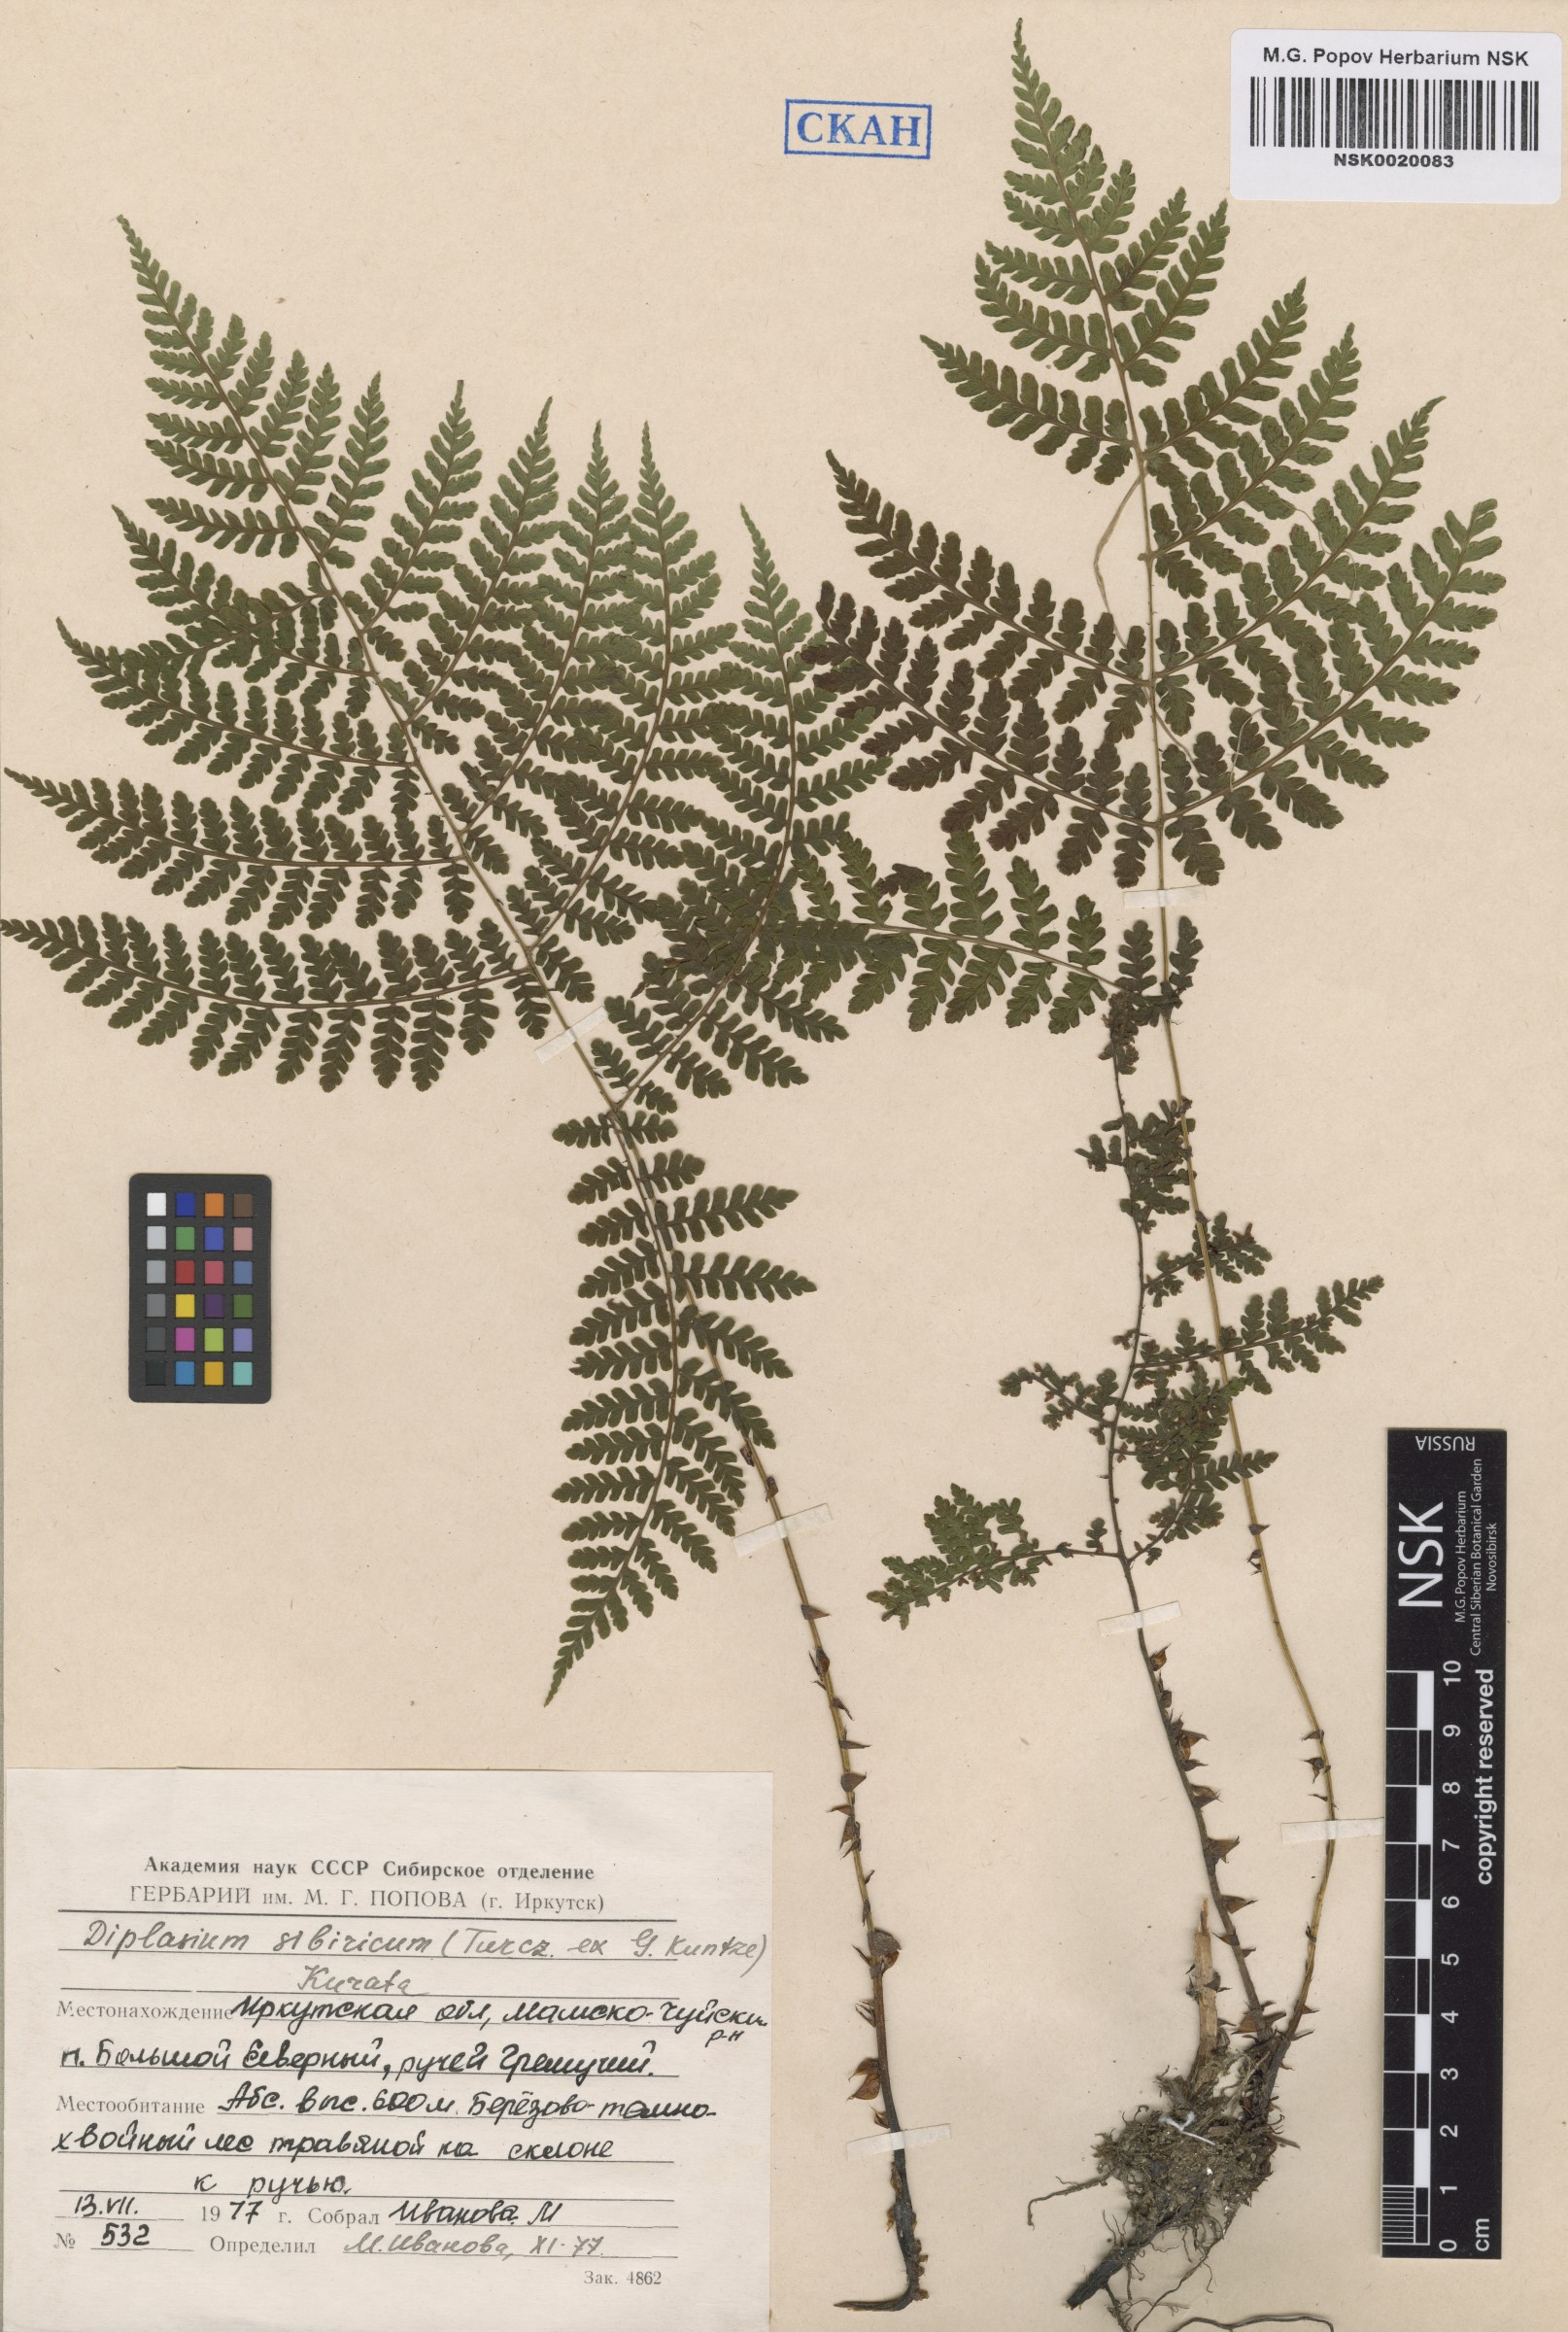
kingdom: Plantae
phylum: Tracheophyta
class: Polypodiopsida
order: Polypodiales
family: Athyriaceae
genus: Diplazium
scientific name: Diplazium sibiricum
